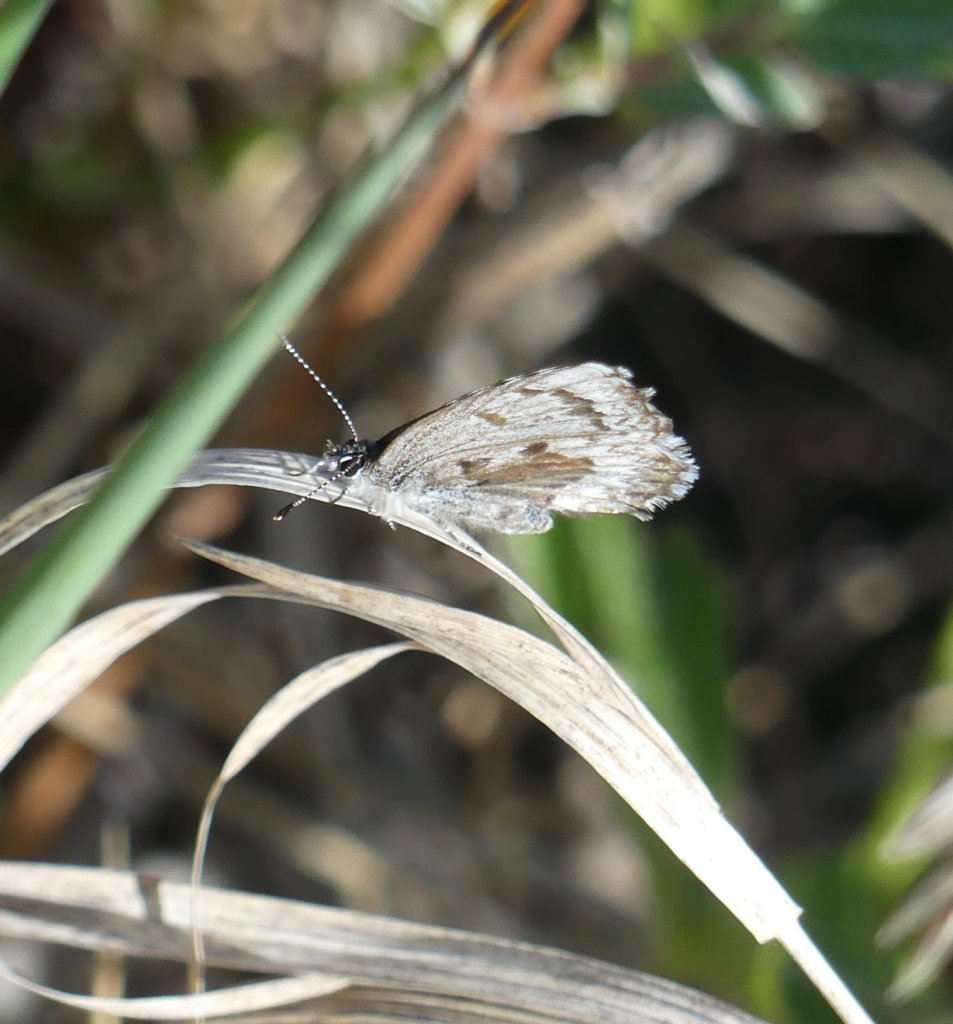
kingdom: Animalia
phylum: Arthropoda
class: Insecta
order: Lepidoptera
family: Lycaenidae
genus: Celastrina
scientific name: Celastrina lucia
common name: Northern Spring Azure
